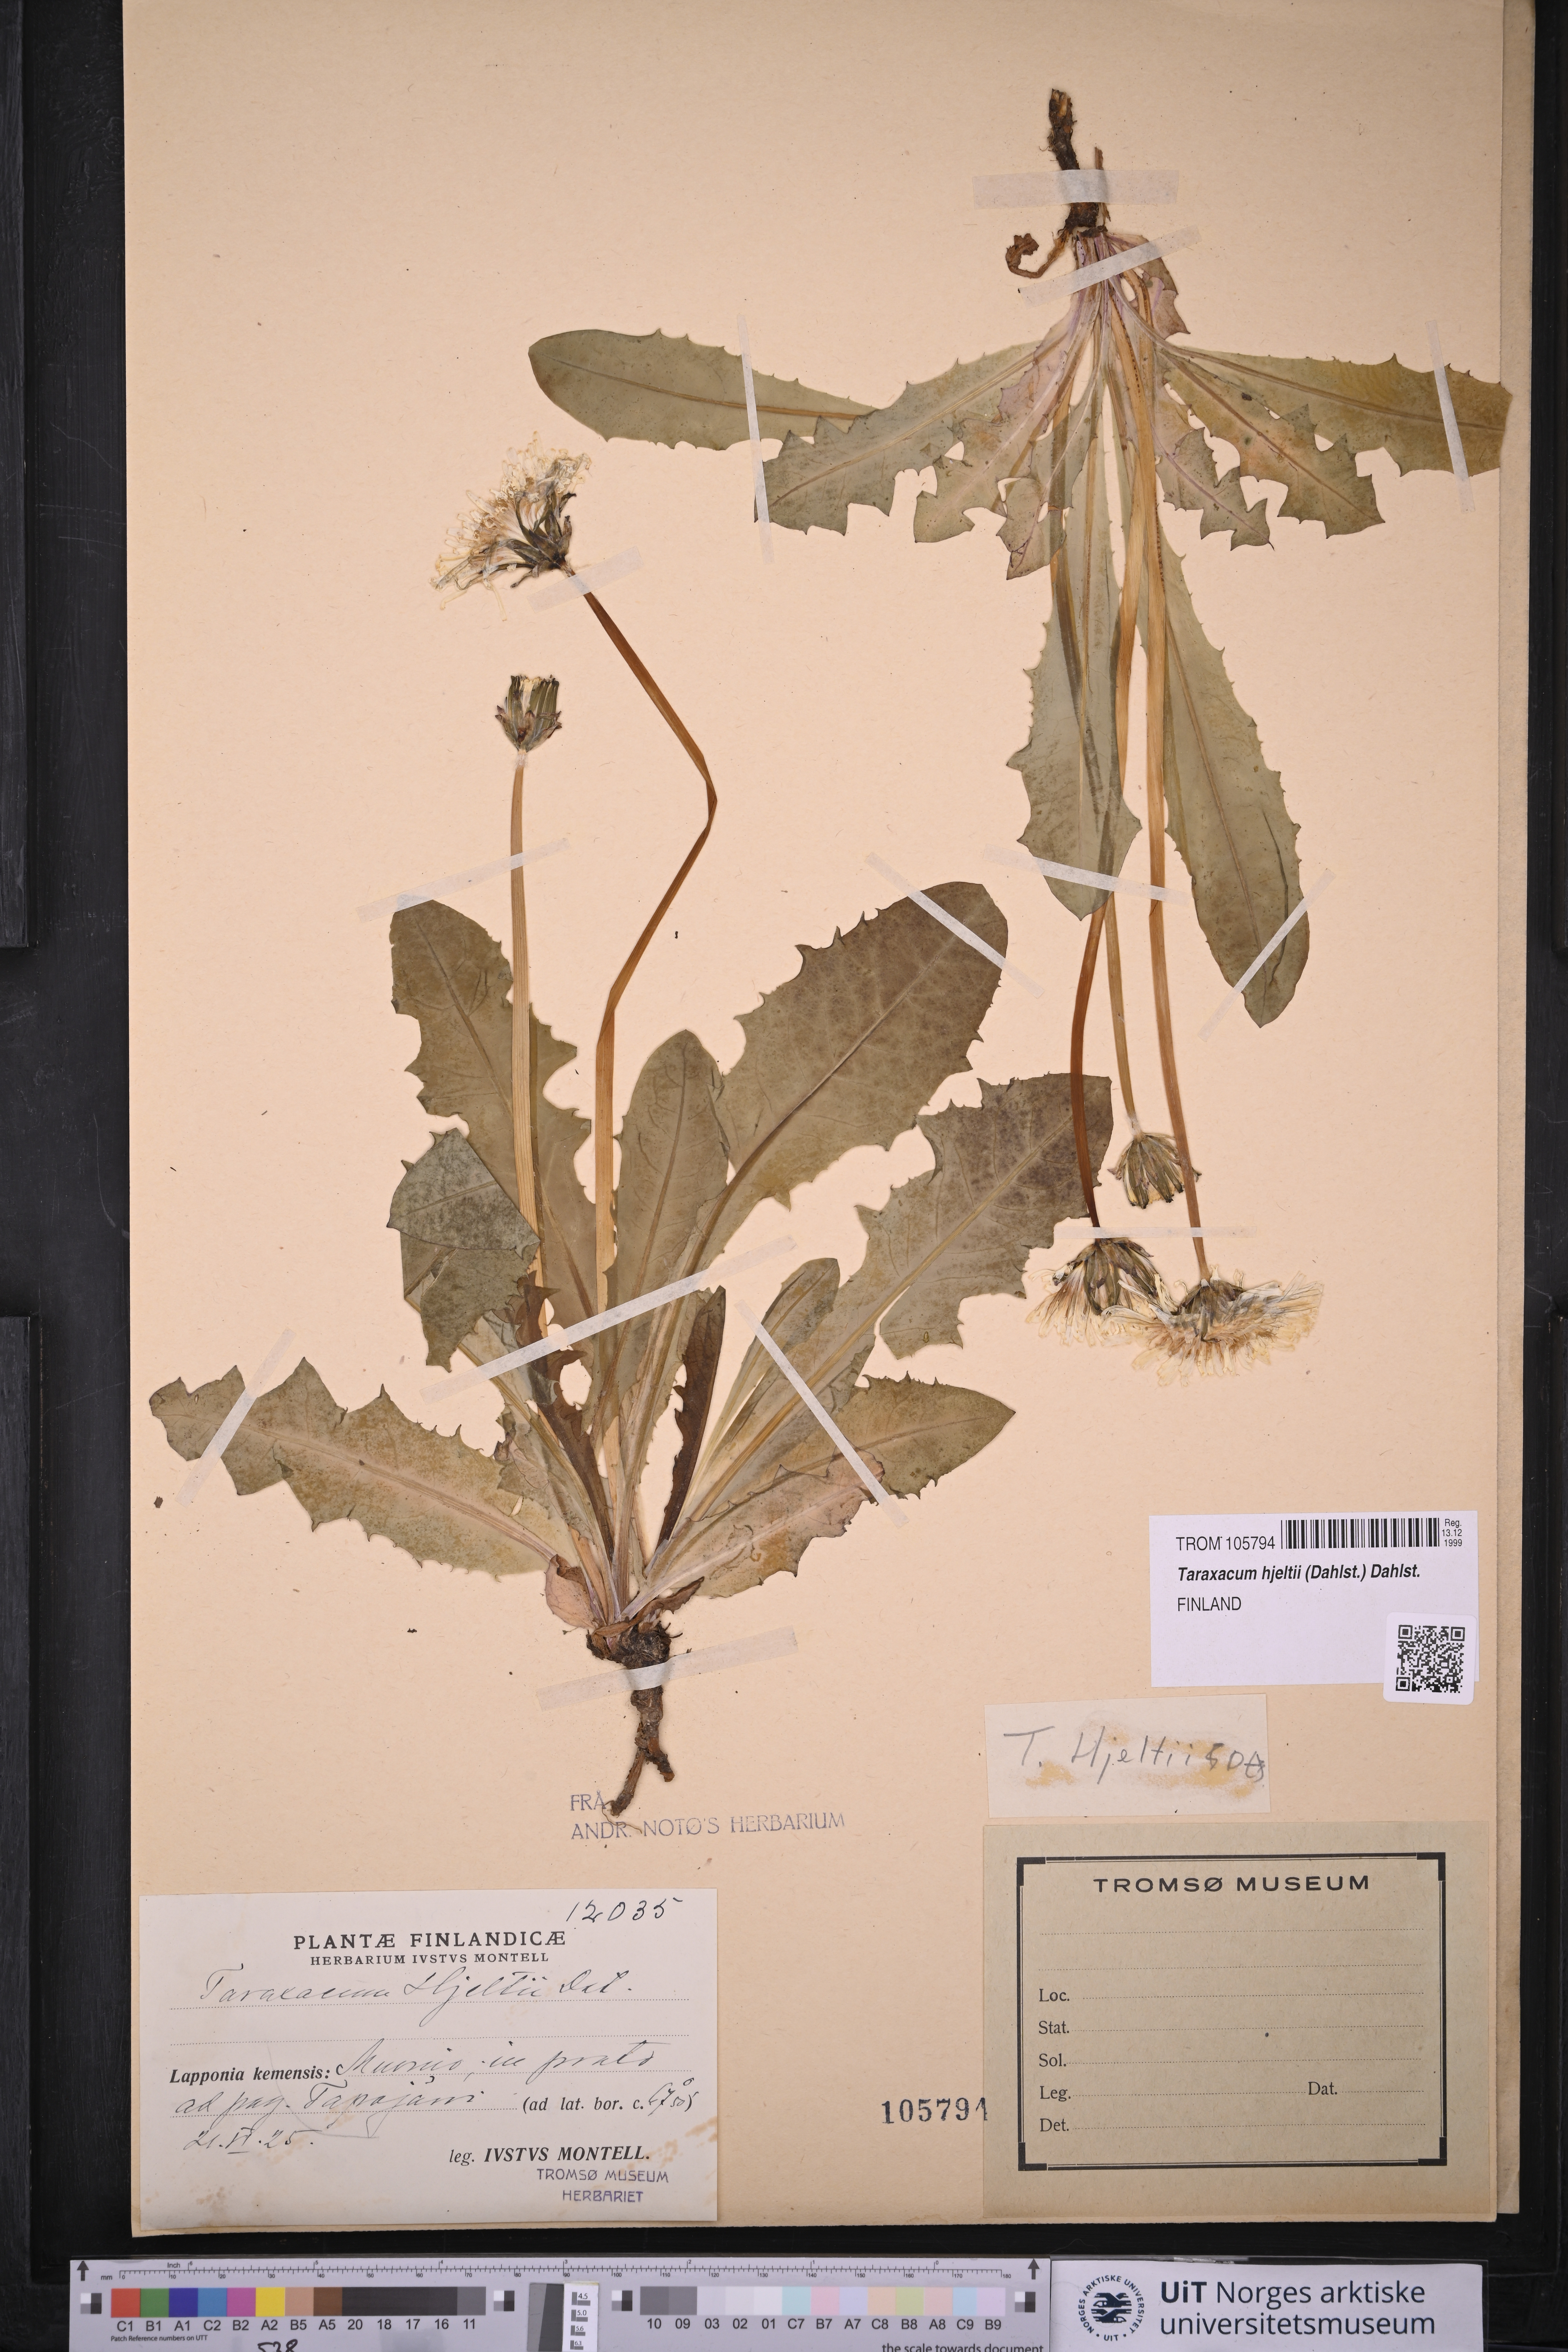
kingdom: Plantae
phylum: Tracheophyta
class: Magnoliopsida
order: Asterales
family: Asteraceae
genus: Taraxacum
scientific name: Taraxacum hjeltii
